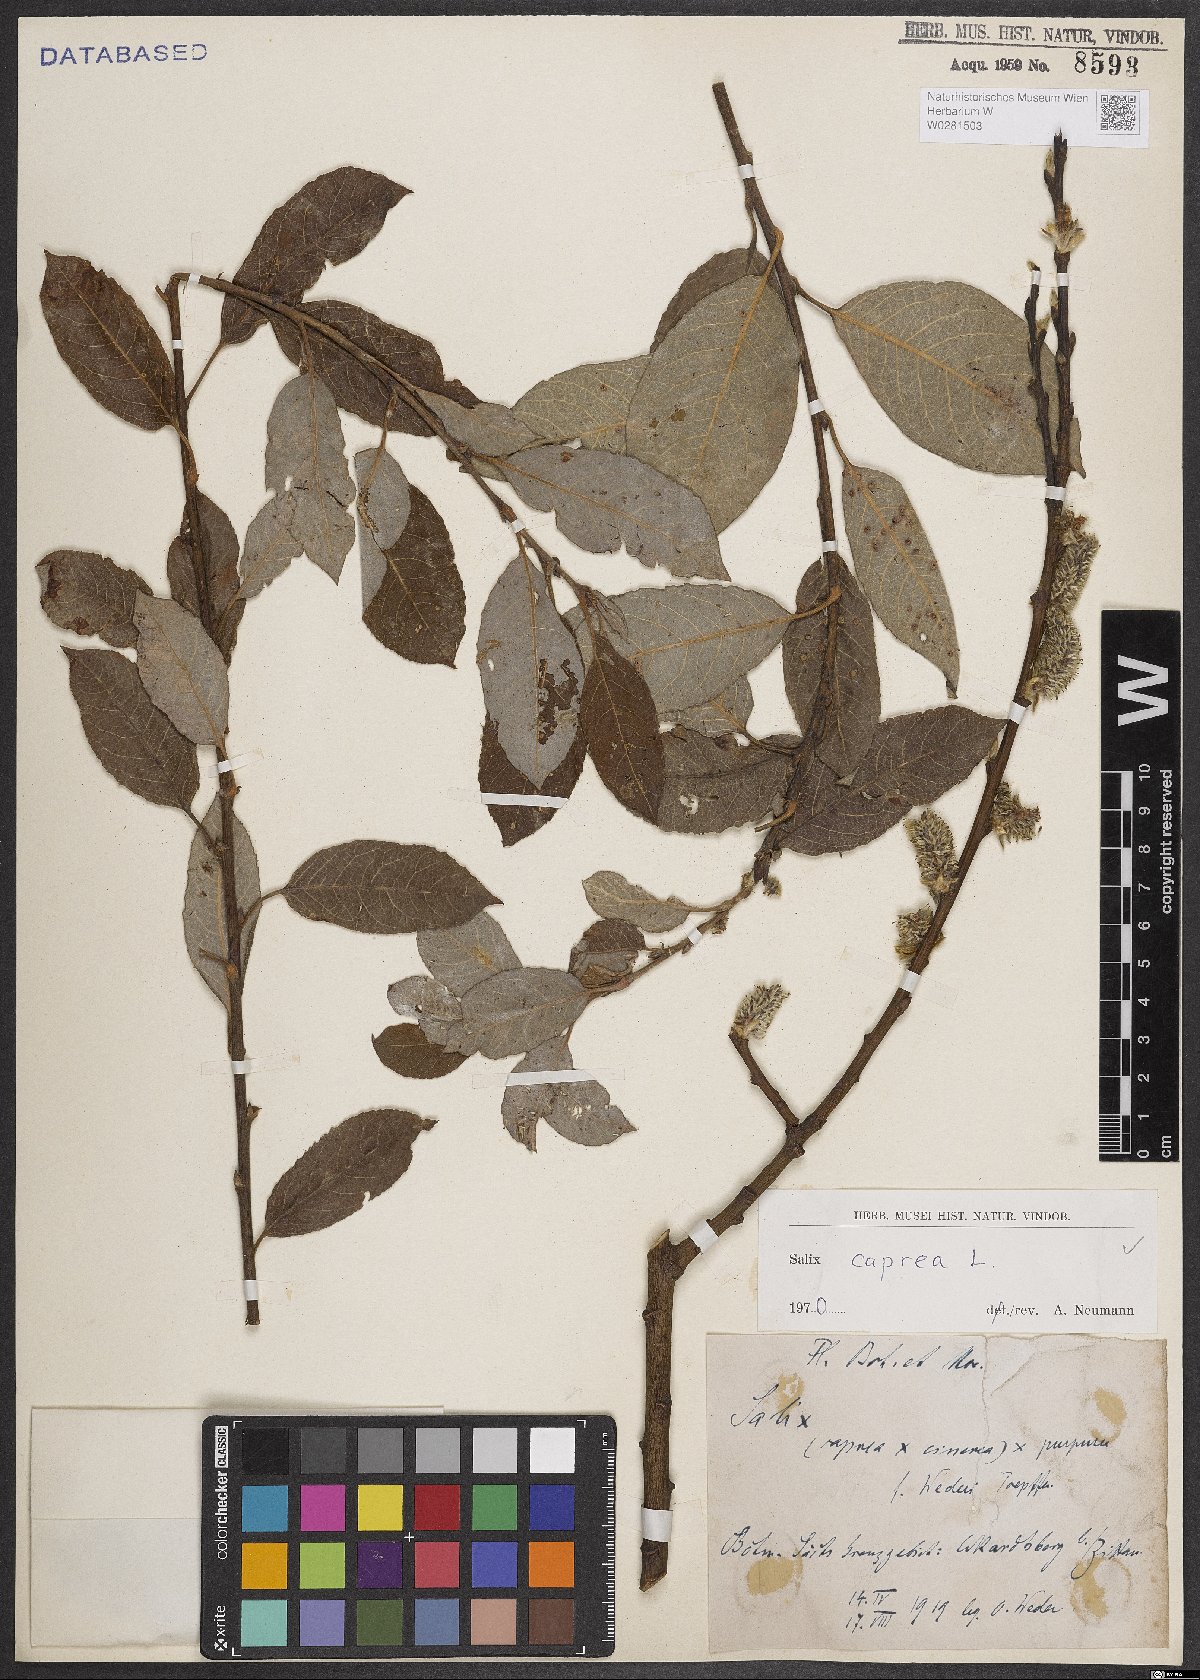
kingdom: Plantae
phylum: Tracheophyta
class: Magnoliopsida
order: Malpighiales
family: Salicaceae
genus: Salix
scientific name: Salix caprea
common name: Goat willow
